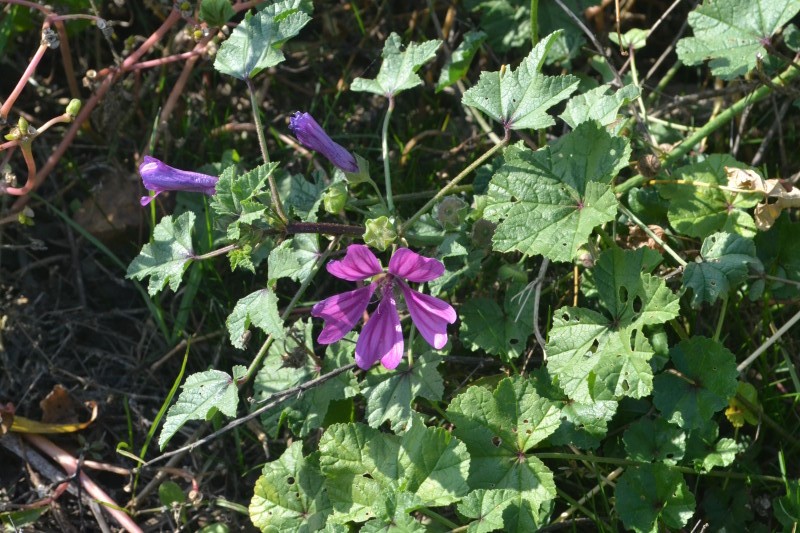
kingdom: Plantae
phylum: Tracheophyta
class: Magnoliopsida
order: Malvales
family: Malvaceae
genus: Malva
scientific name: Malva sylvestris
